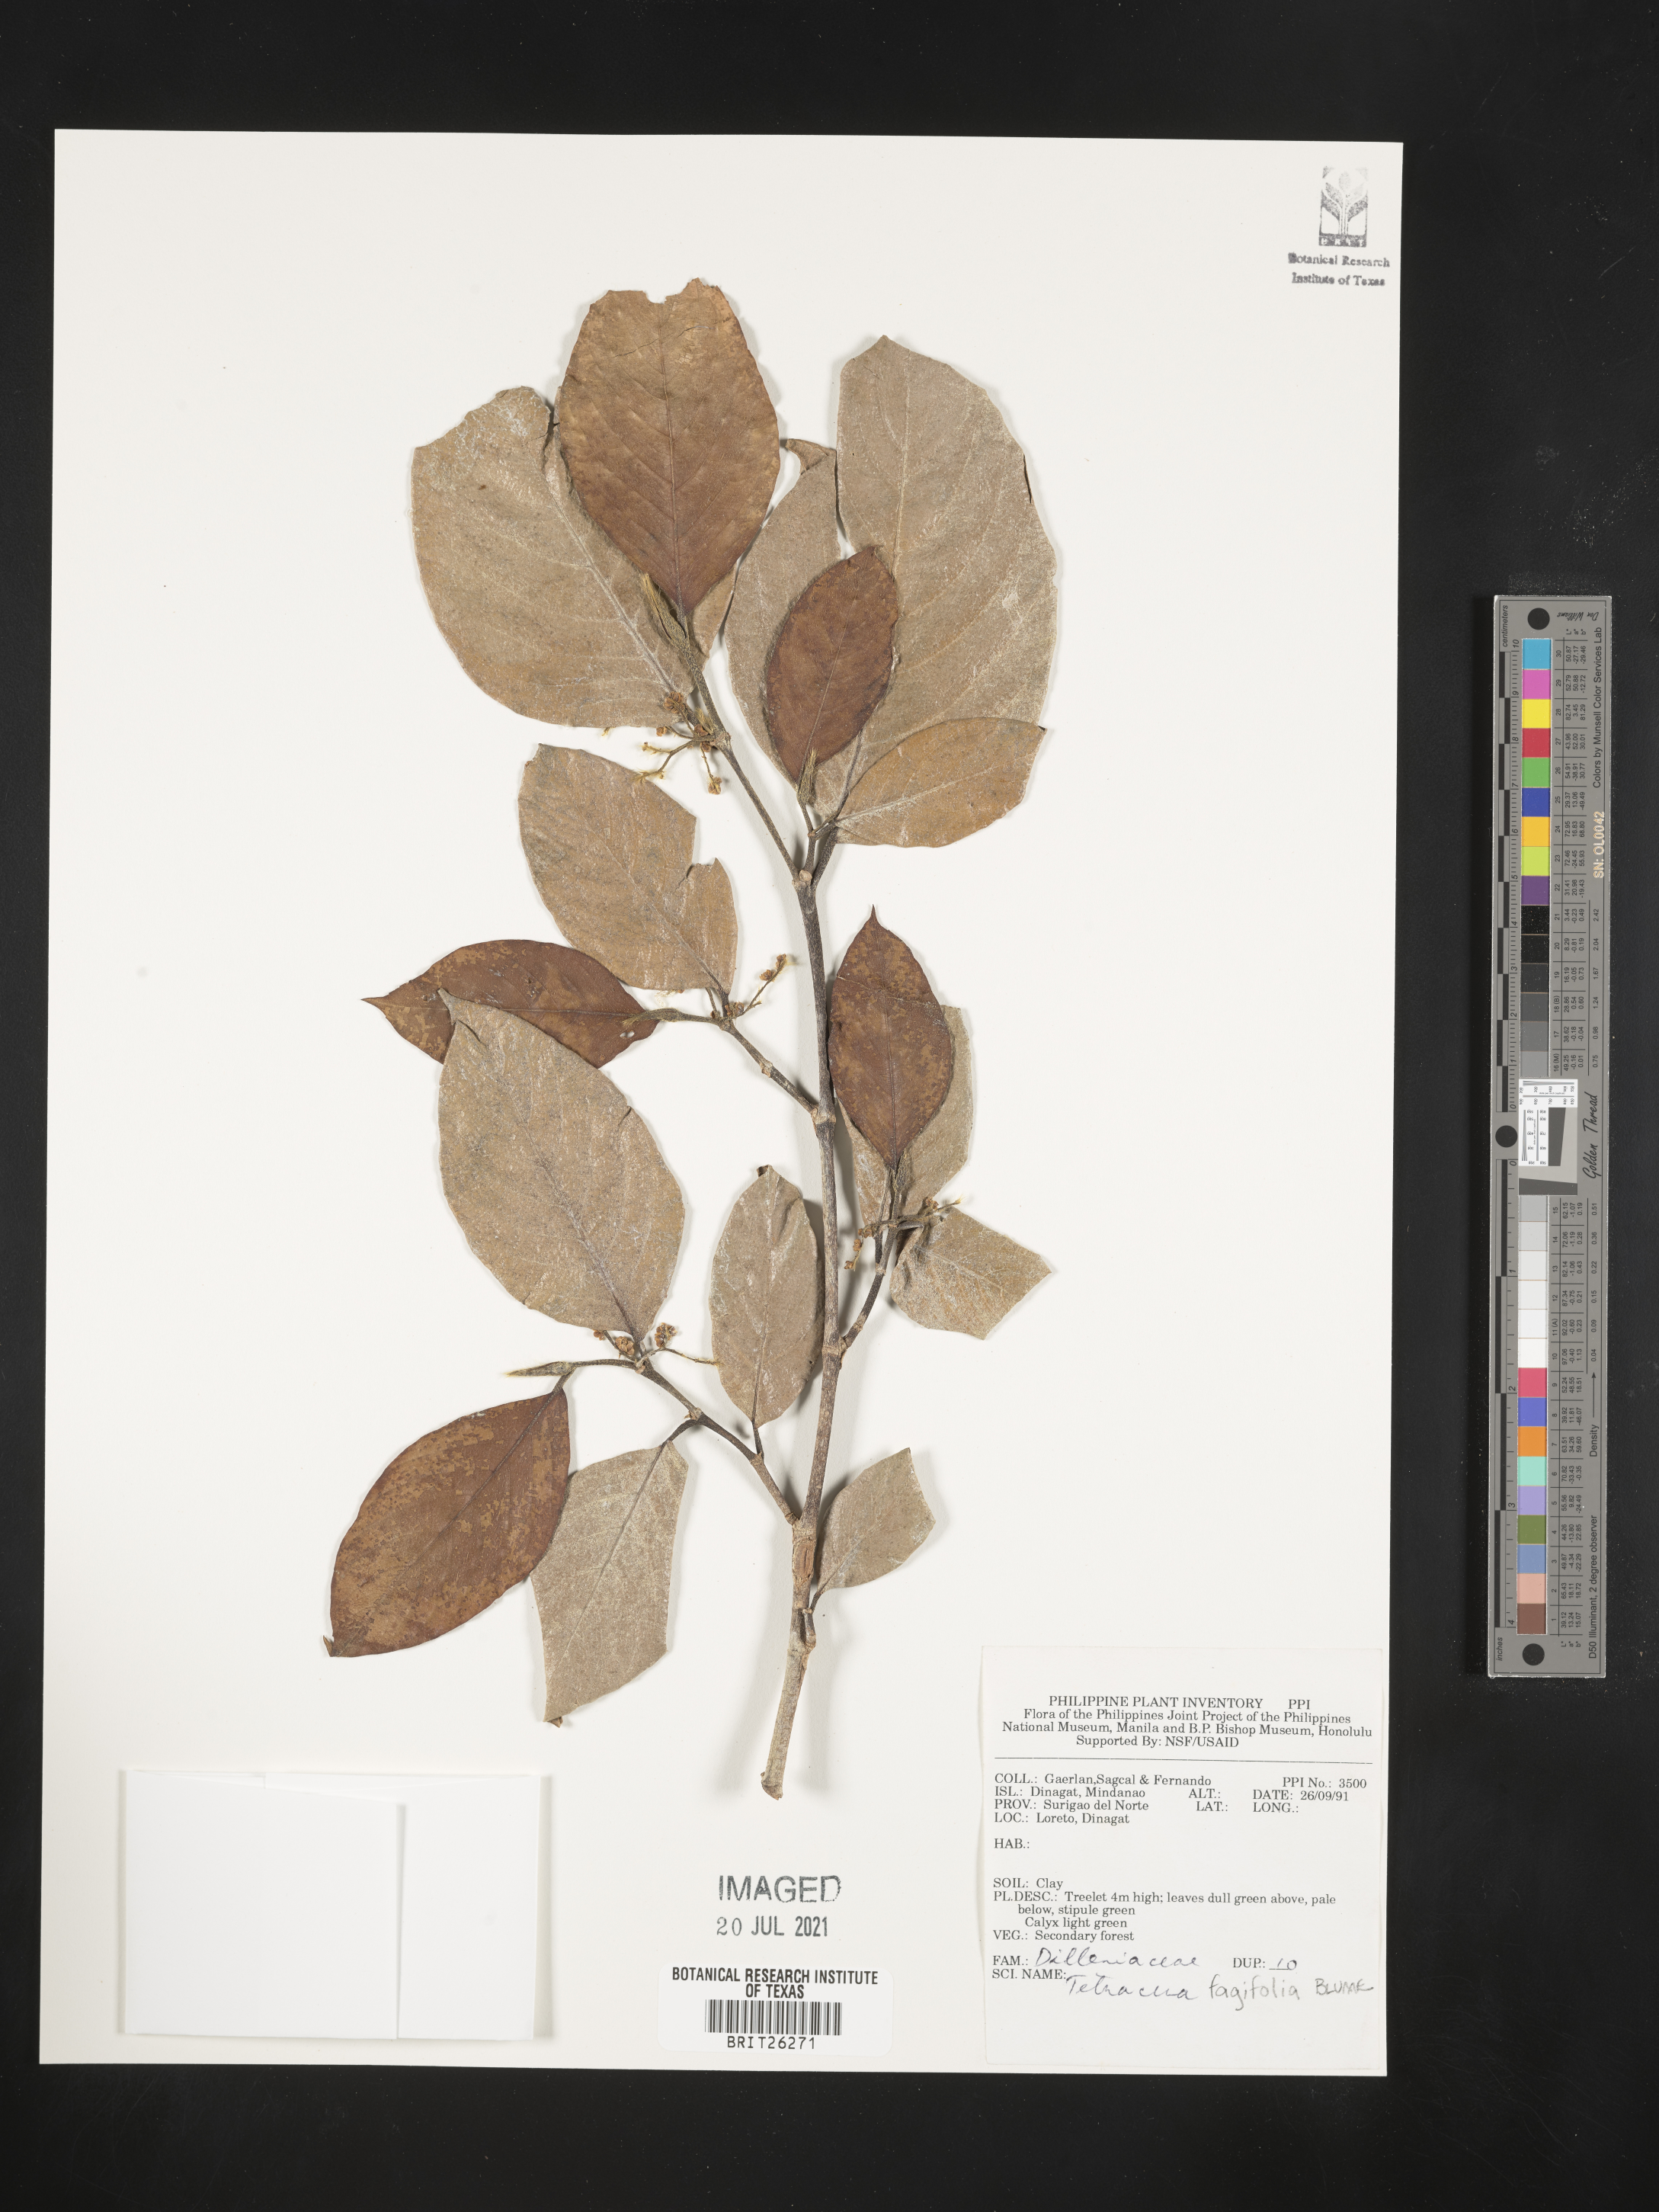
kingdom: Plantae
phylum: Tracheophyta
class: Magnoliopsida
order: Dilleniales
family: Dilleniaceae
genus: Tetracera
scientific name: Tetracera fagifolia
